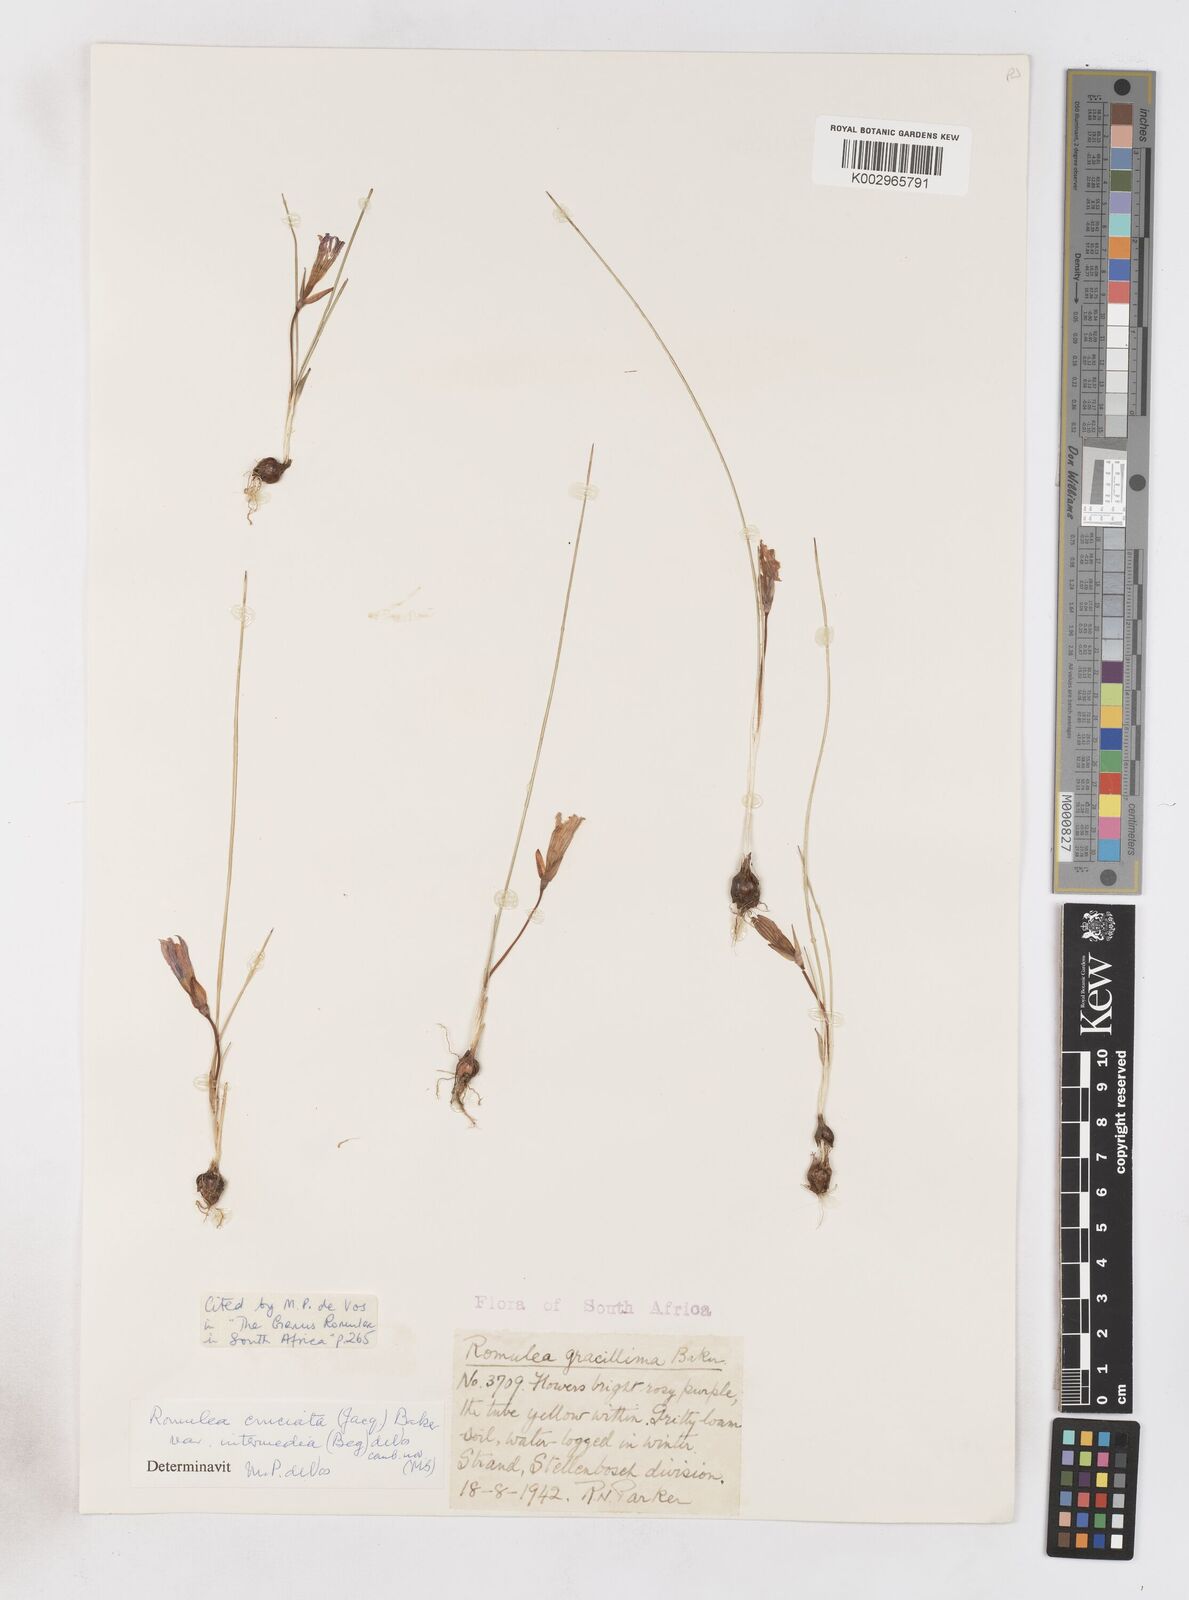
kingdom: Plantae
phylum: Tracheophyta
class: Liliopsida
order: Asparagales
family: Iridaceae
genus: Romulea
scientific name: Romulea cruciata
